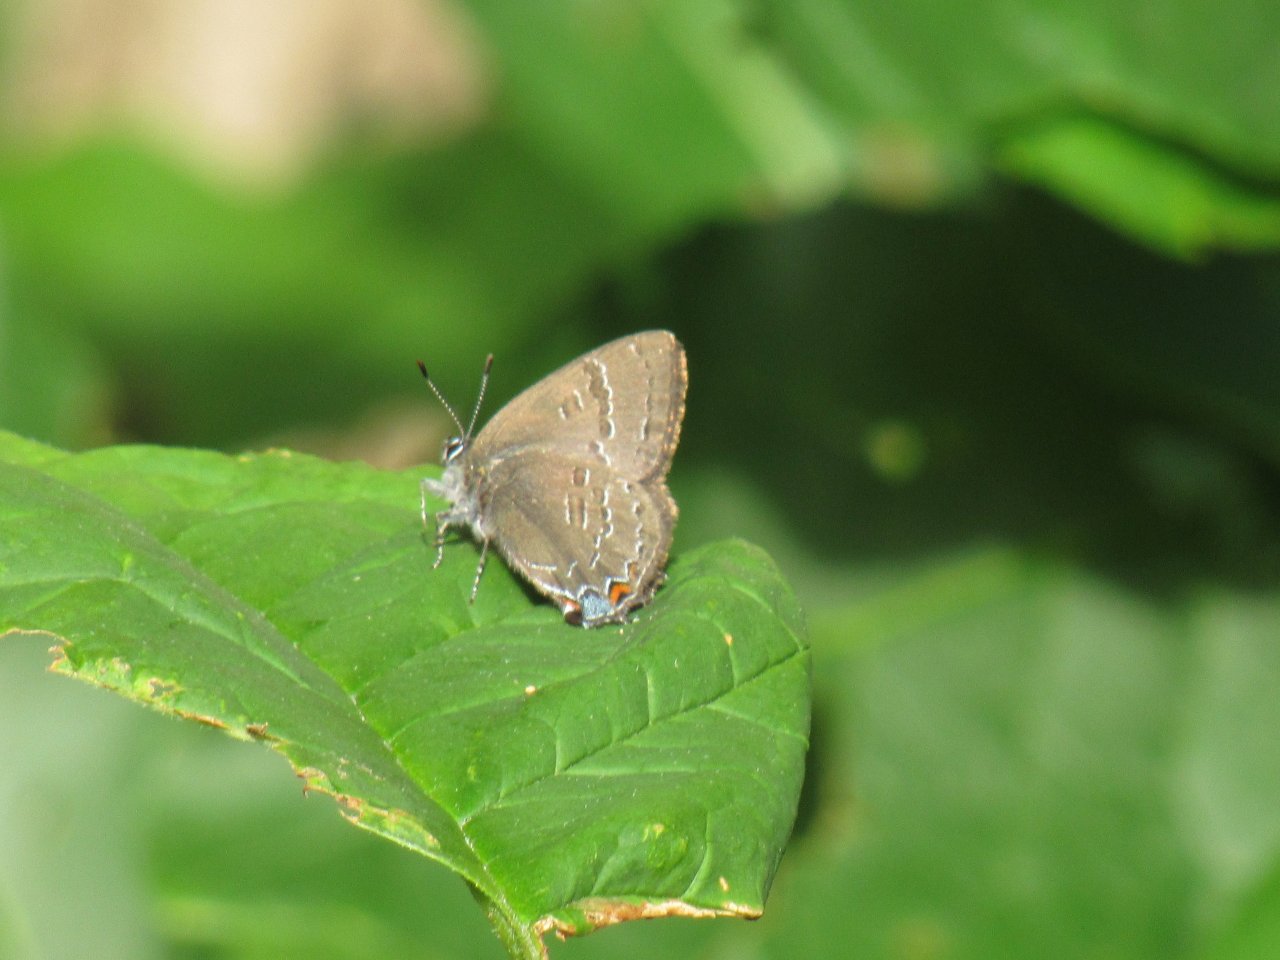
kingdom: Animalia
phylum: Arthropoda
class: Insecta
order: Lepidoptera
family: Lycaenidae
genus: Satyrium
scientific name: Satyrium calanus
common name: Banded Hairstreak
